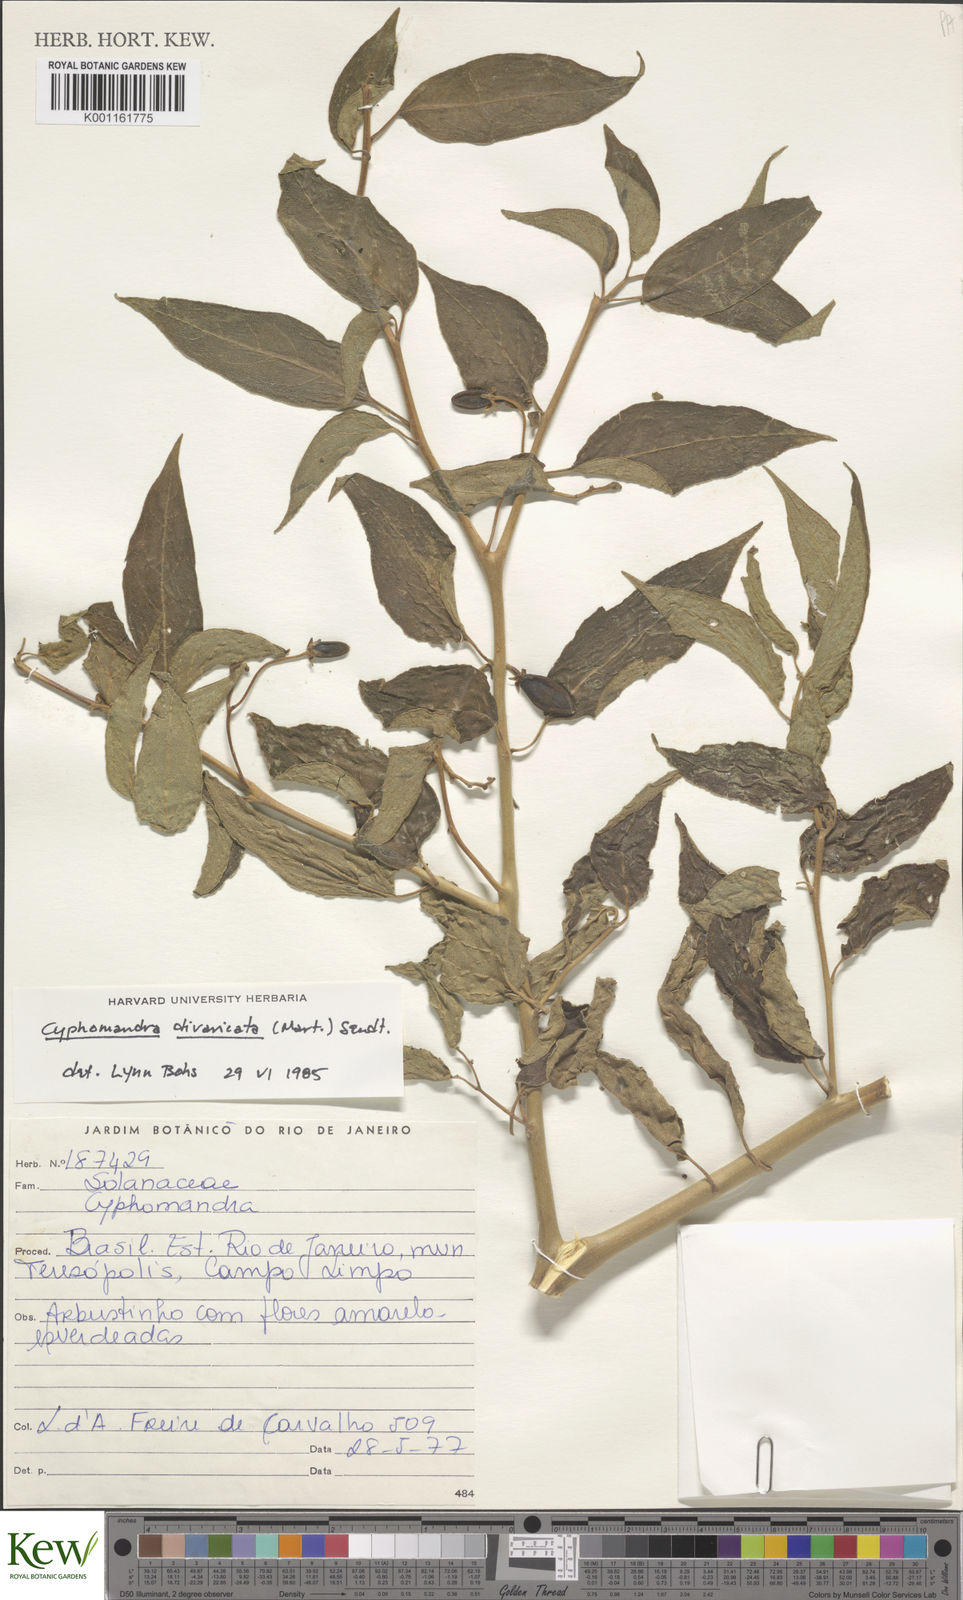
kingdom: Plantae
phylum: Tracheophyta
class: Magnoliopsida
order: Solanales
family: Solanaceae
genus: Solanum
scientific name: Solanum melissarum
